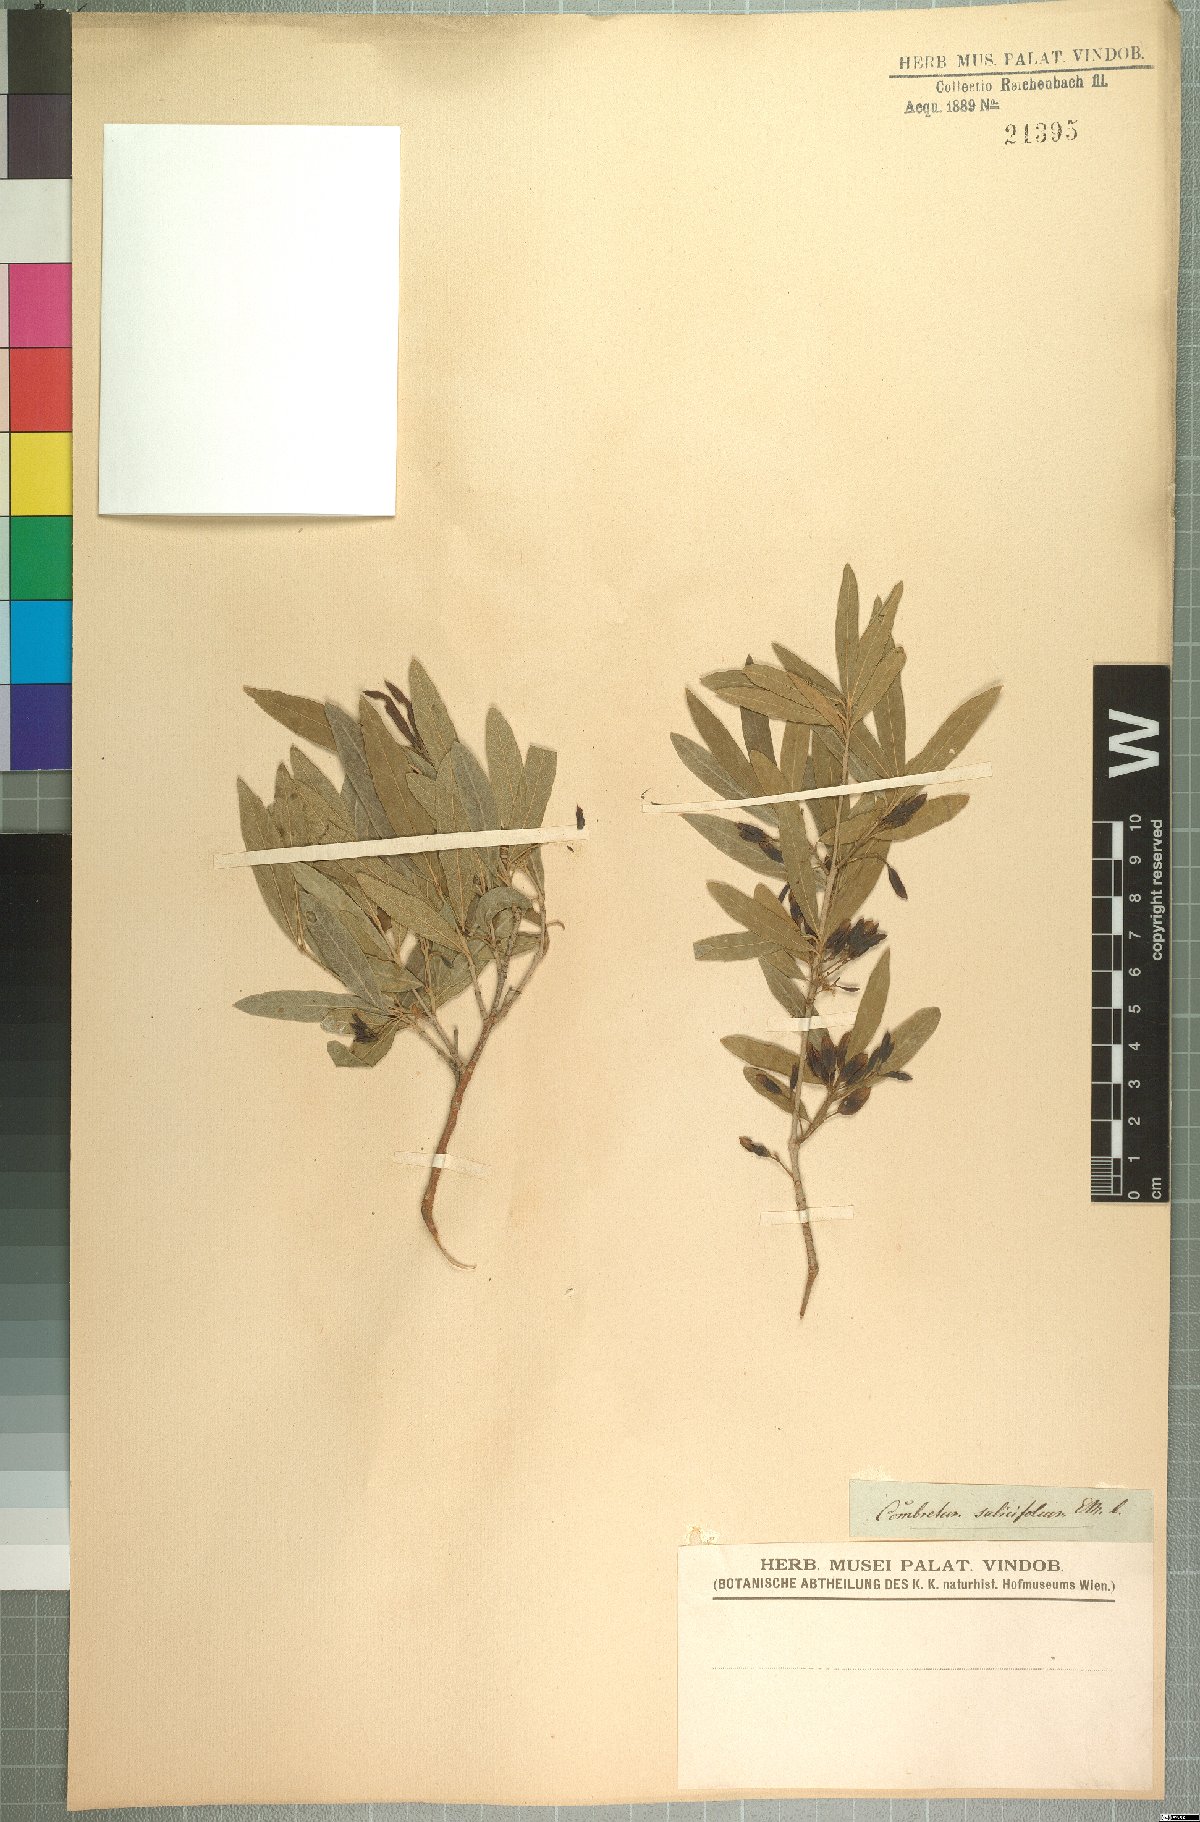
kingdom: Plantae
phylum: Tracheophyta
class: Magnoliopsida
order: Myrtales
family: Combretaceae
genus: Combretum
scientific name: Combretum caffrum
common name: Cape bushwillow
